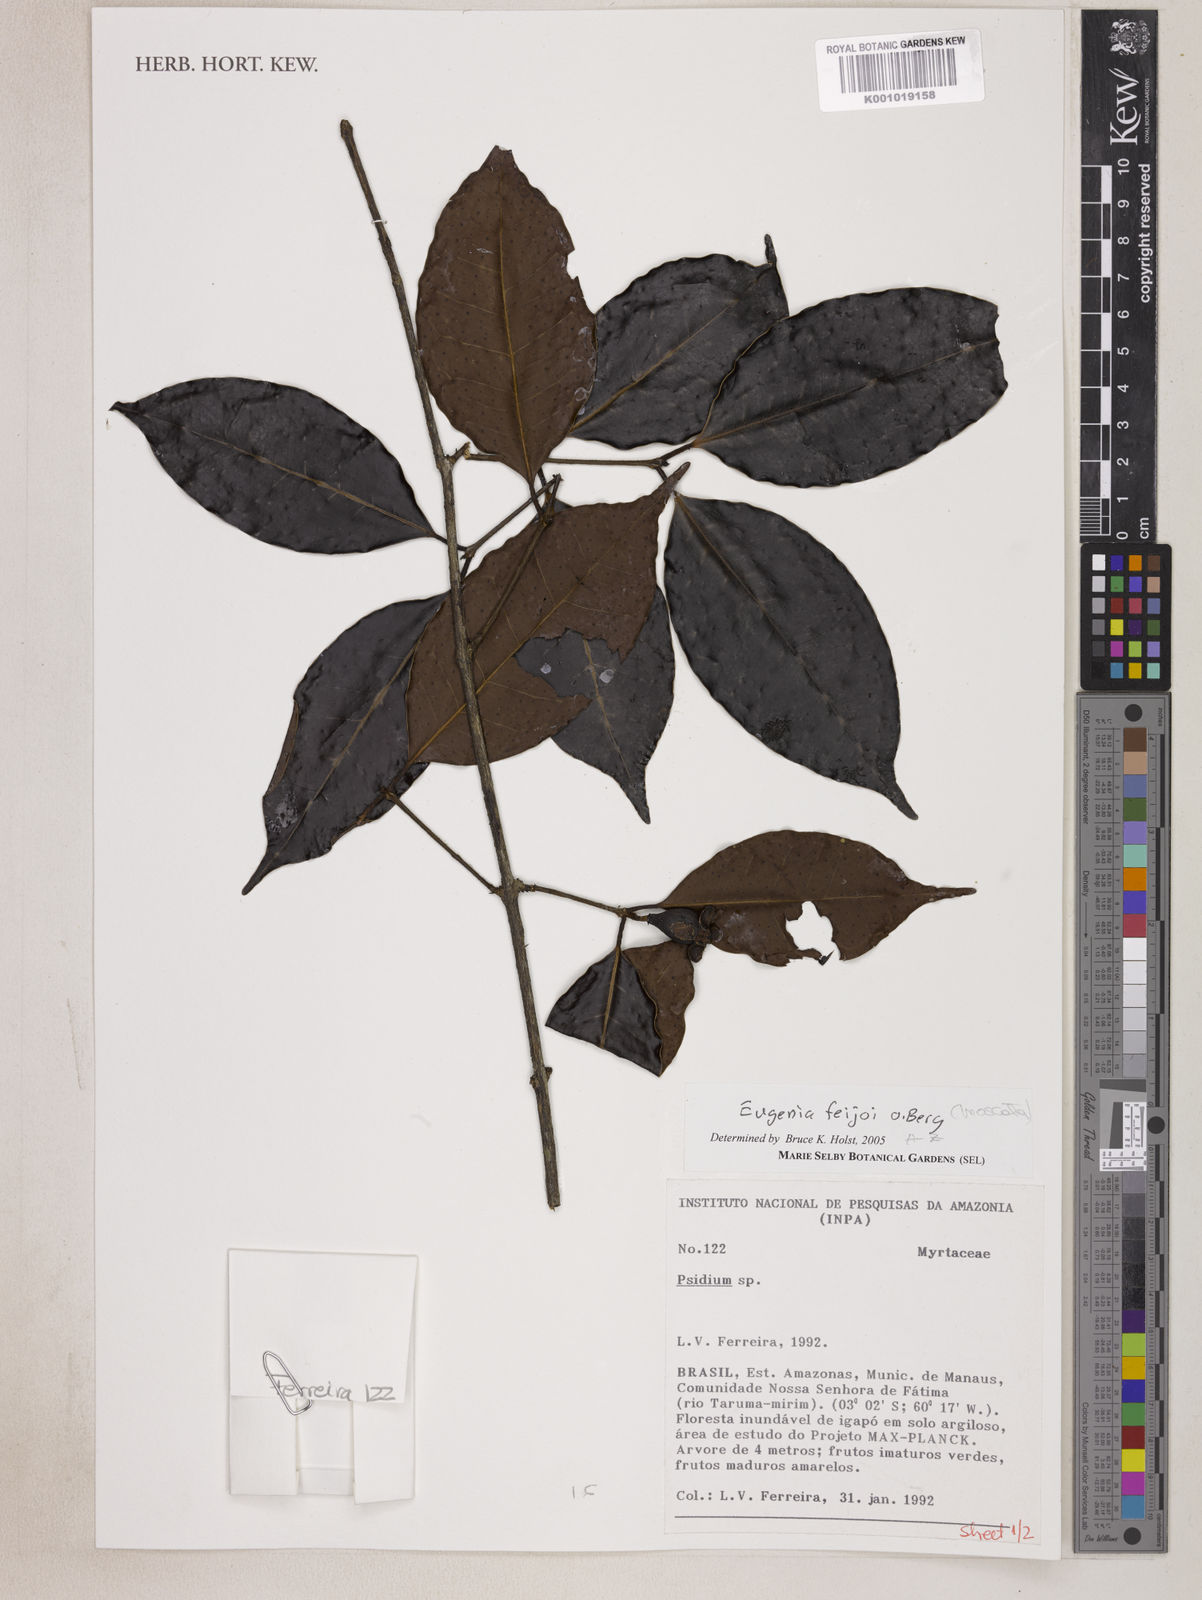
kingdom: Plantae
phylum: Tracheophyta
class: Magnoliopsida
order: Myrtales
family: Myrtaceae
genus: Eugenia
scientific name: Eugenia moschata
